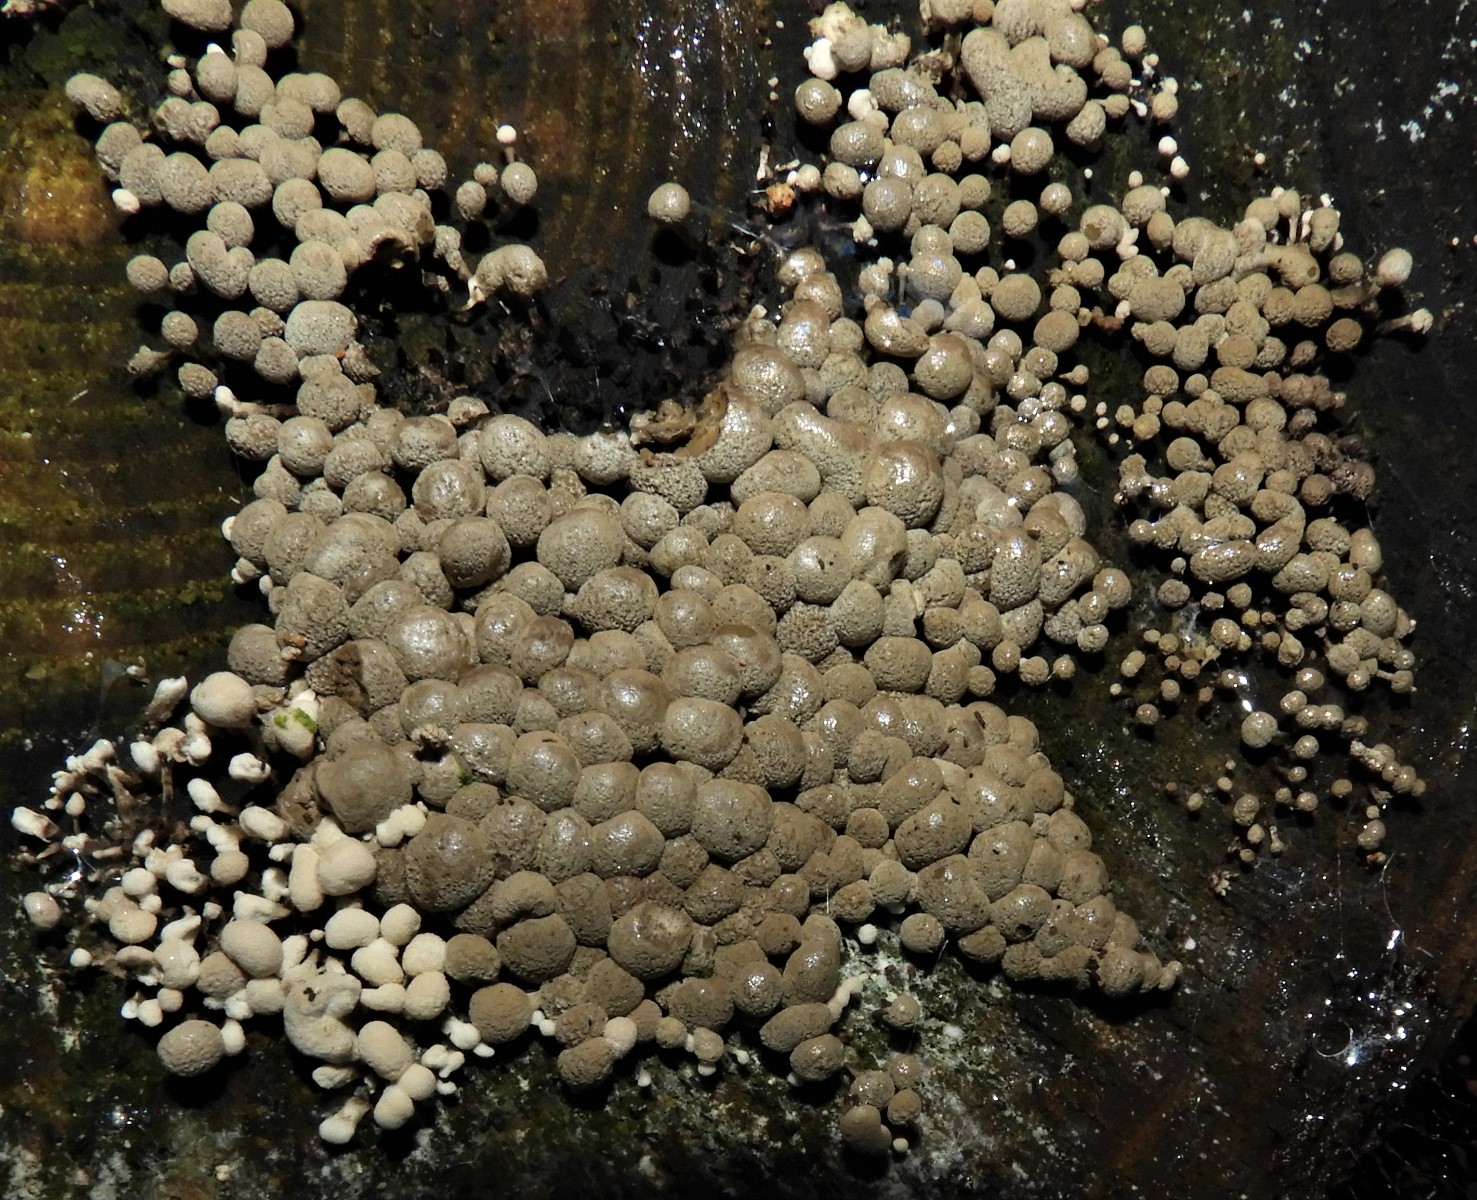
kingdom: Fungi
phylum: Basidiomycota
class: Atractiellomycetes
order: Atractiellales
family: Phleogenaceae
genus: Phleogena
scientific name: Phleogena faginea
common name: pudderkølle
